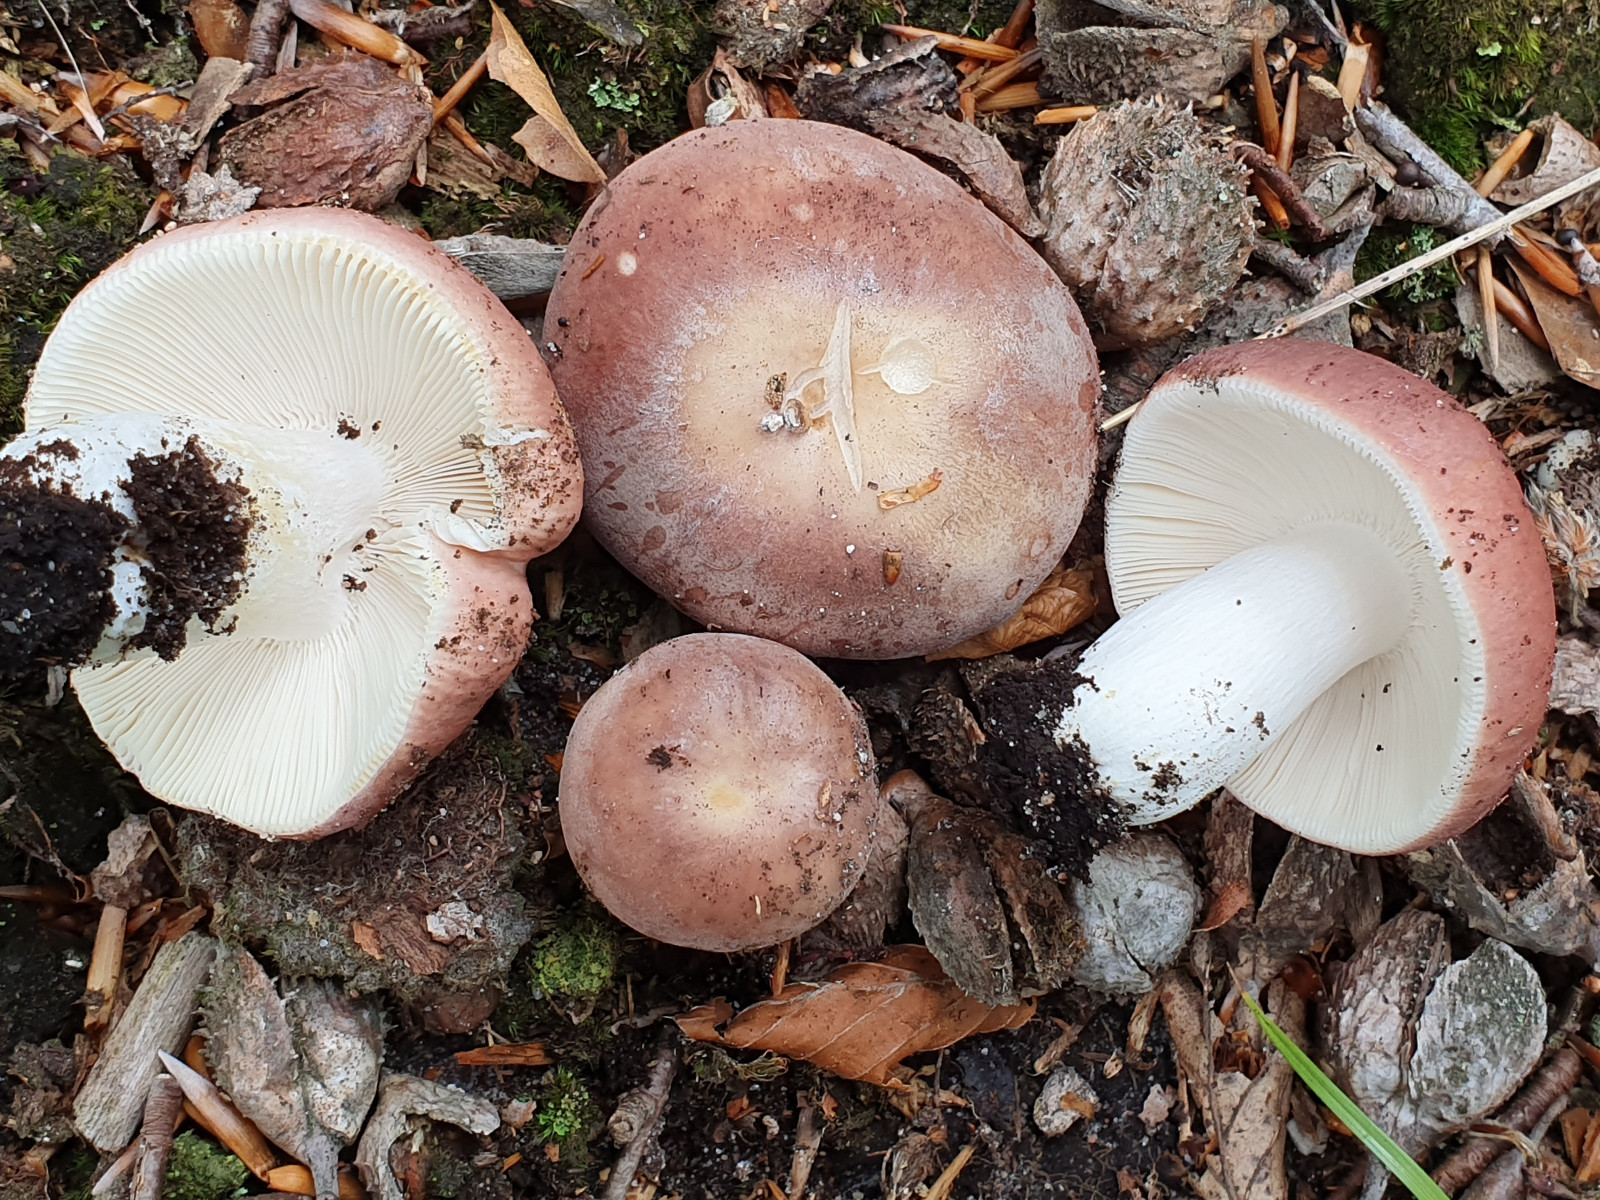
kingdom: Fungi
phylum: Basidiomycota
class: Agaricomycetes
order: Russulales
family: Russulaceae
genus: Russula
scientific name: Russula vesca
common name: spiselig skørhat
